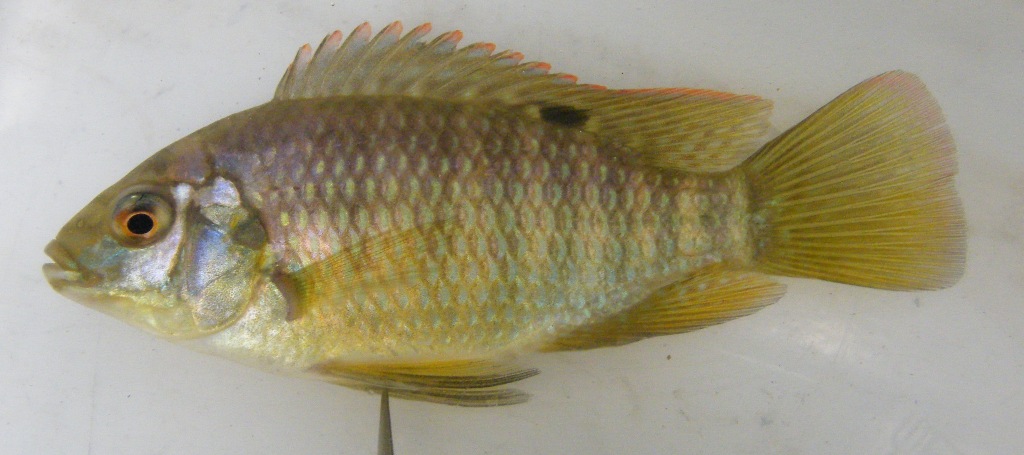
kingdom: Animalia
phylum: Chordata
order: Perciformes
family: Cichlidae
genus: Tilapia
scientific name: Tilapia sparrmanii
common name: Banded tilapia
